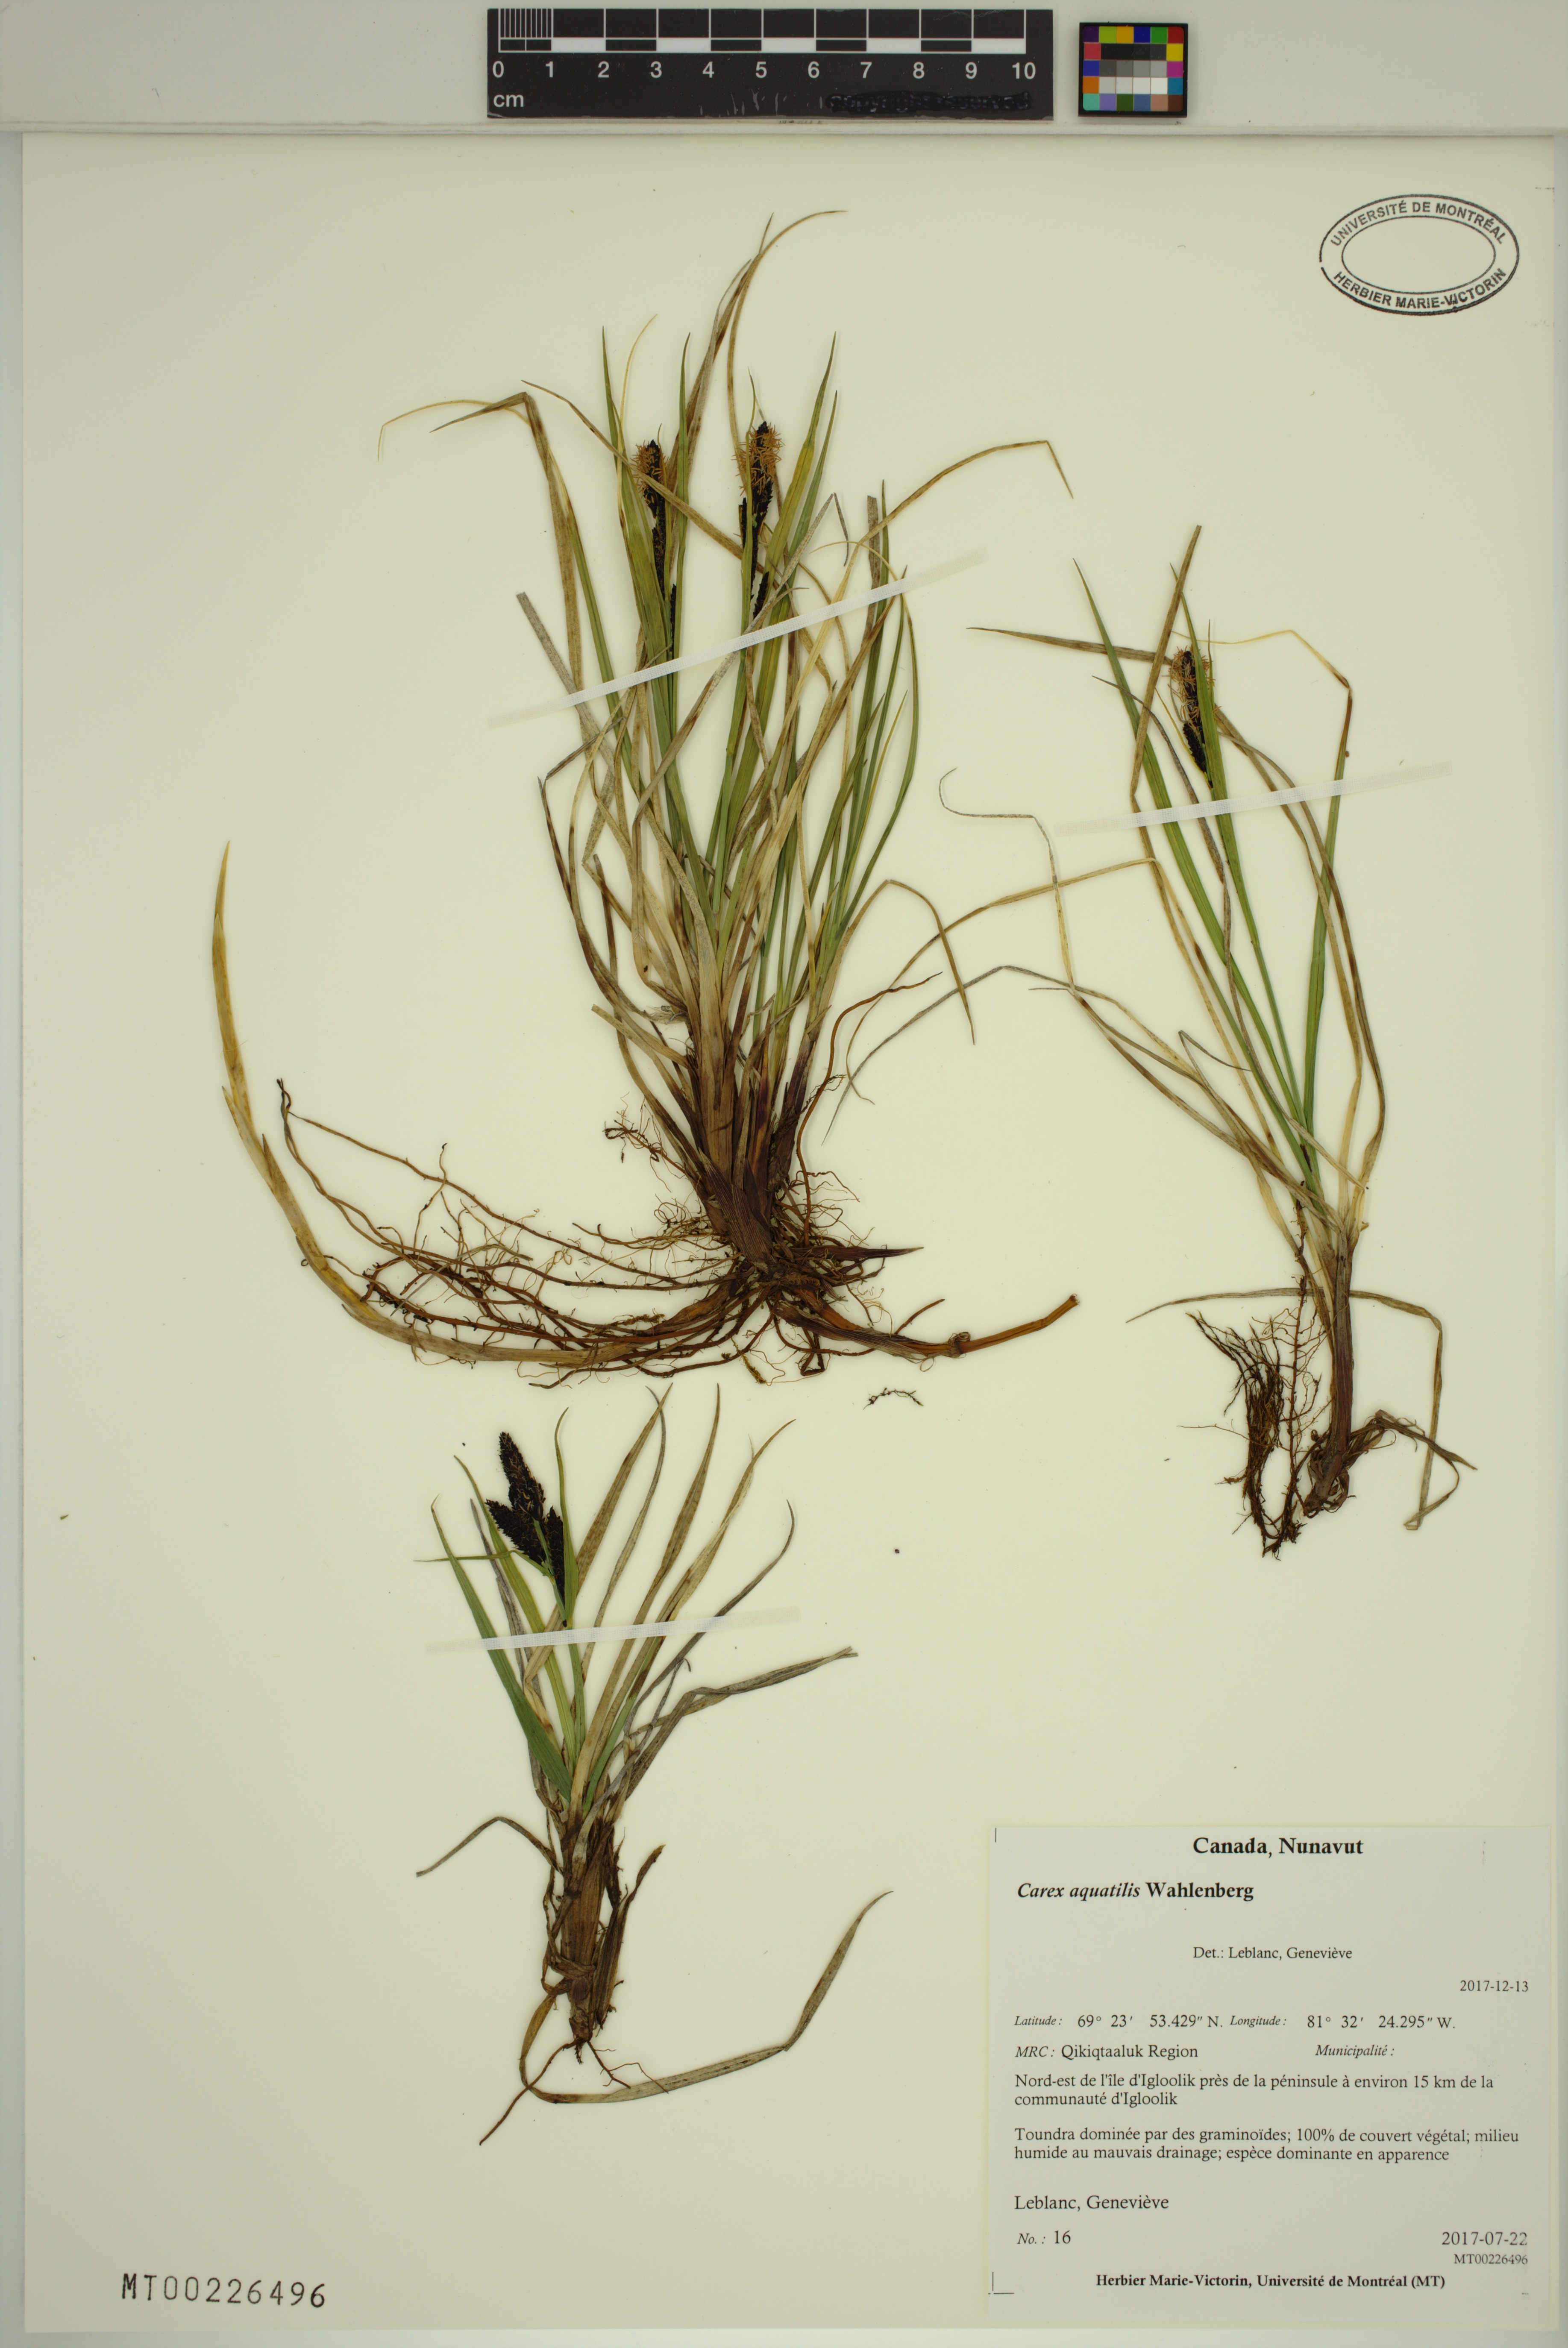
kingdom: Plantae
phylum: Tracheophyta
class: Liliopsida
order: Poales
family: Cyperaceae
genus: Carex
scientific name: Carex aquatilis
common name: Water sedge
